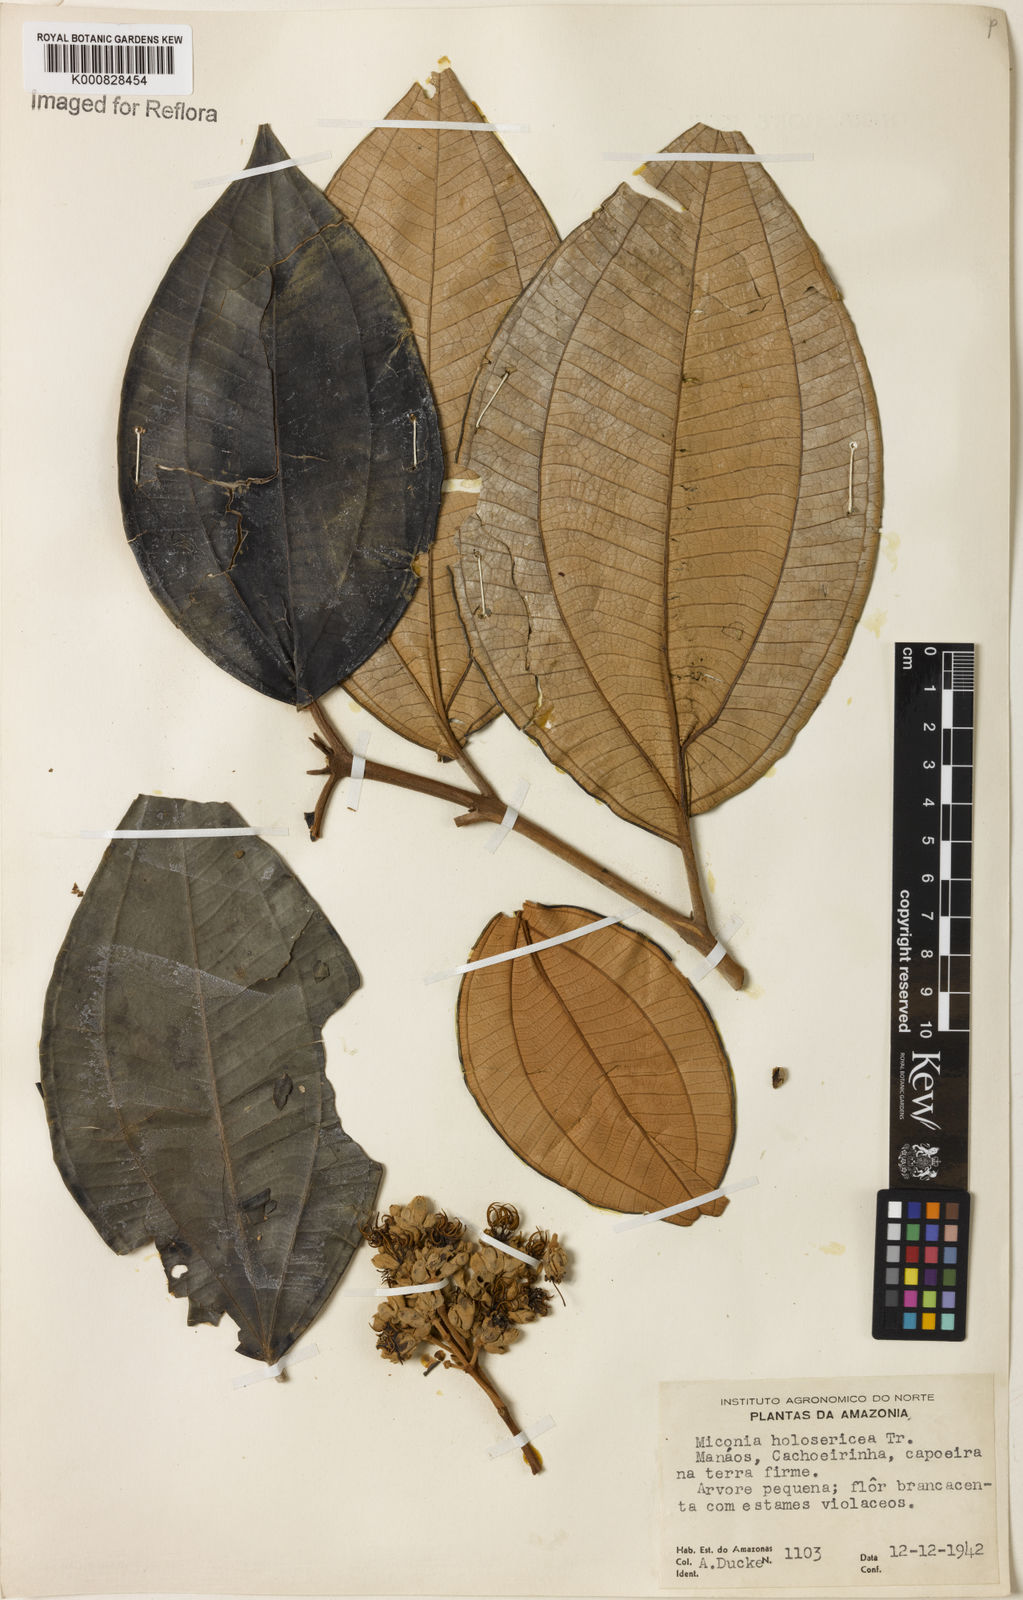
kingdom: Plantae
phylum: Tracheophyta
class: Magnoliopsida
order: Myrtales
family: Melastomataceae
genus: Miconia
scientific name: Miconia holosericea
